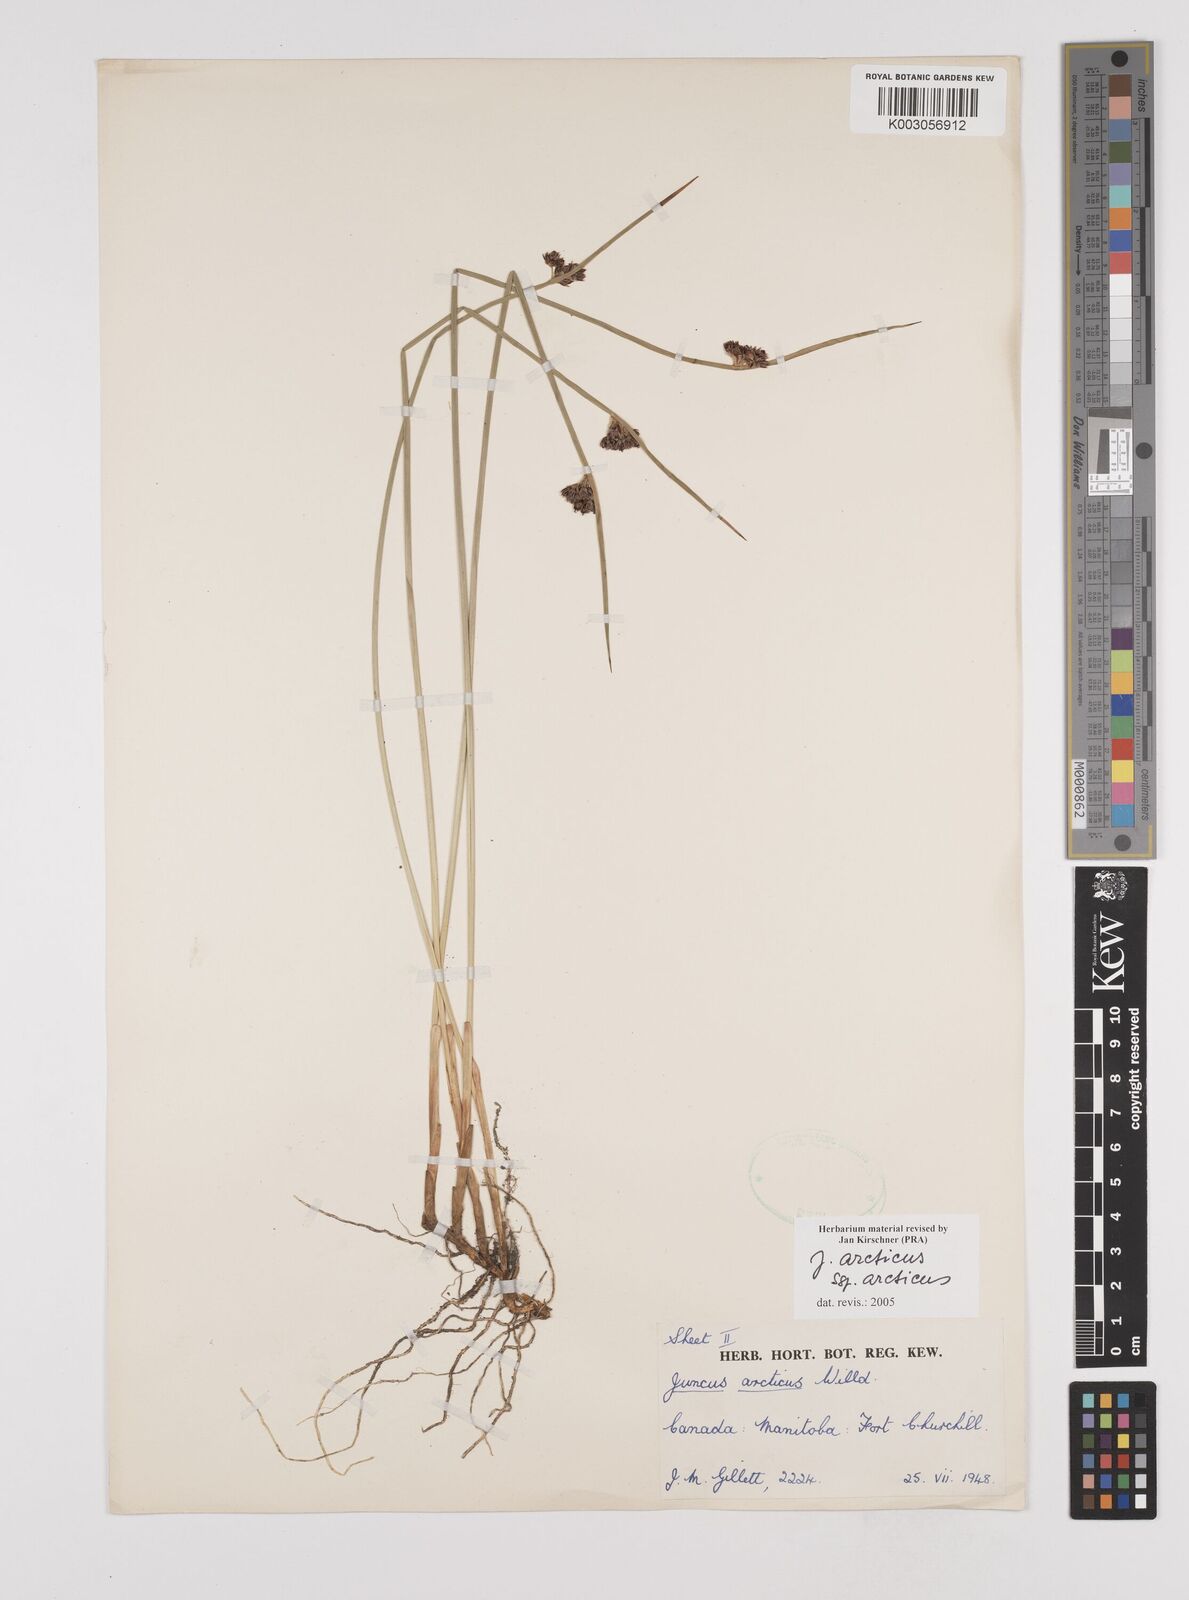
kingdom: Plantae
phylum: Tracheophyta
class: Liliopsida
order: Poales
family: Juncaceae
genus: Juncus
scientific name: Juncus arcticus
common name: Arctic rush
